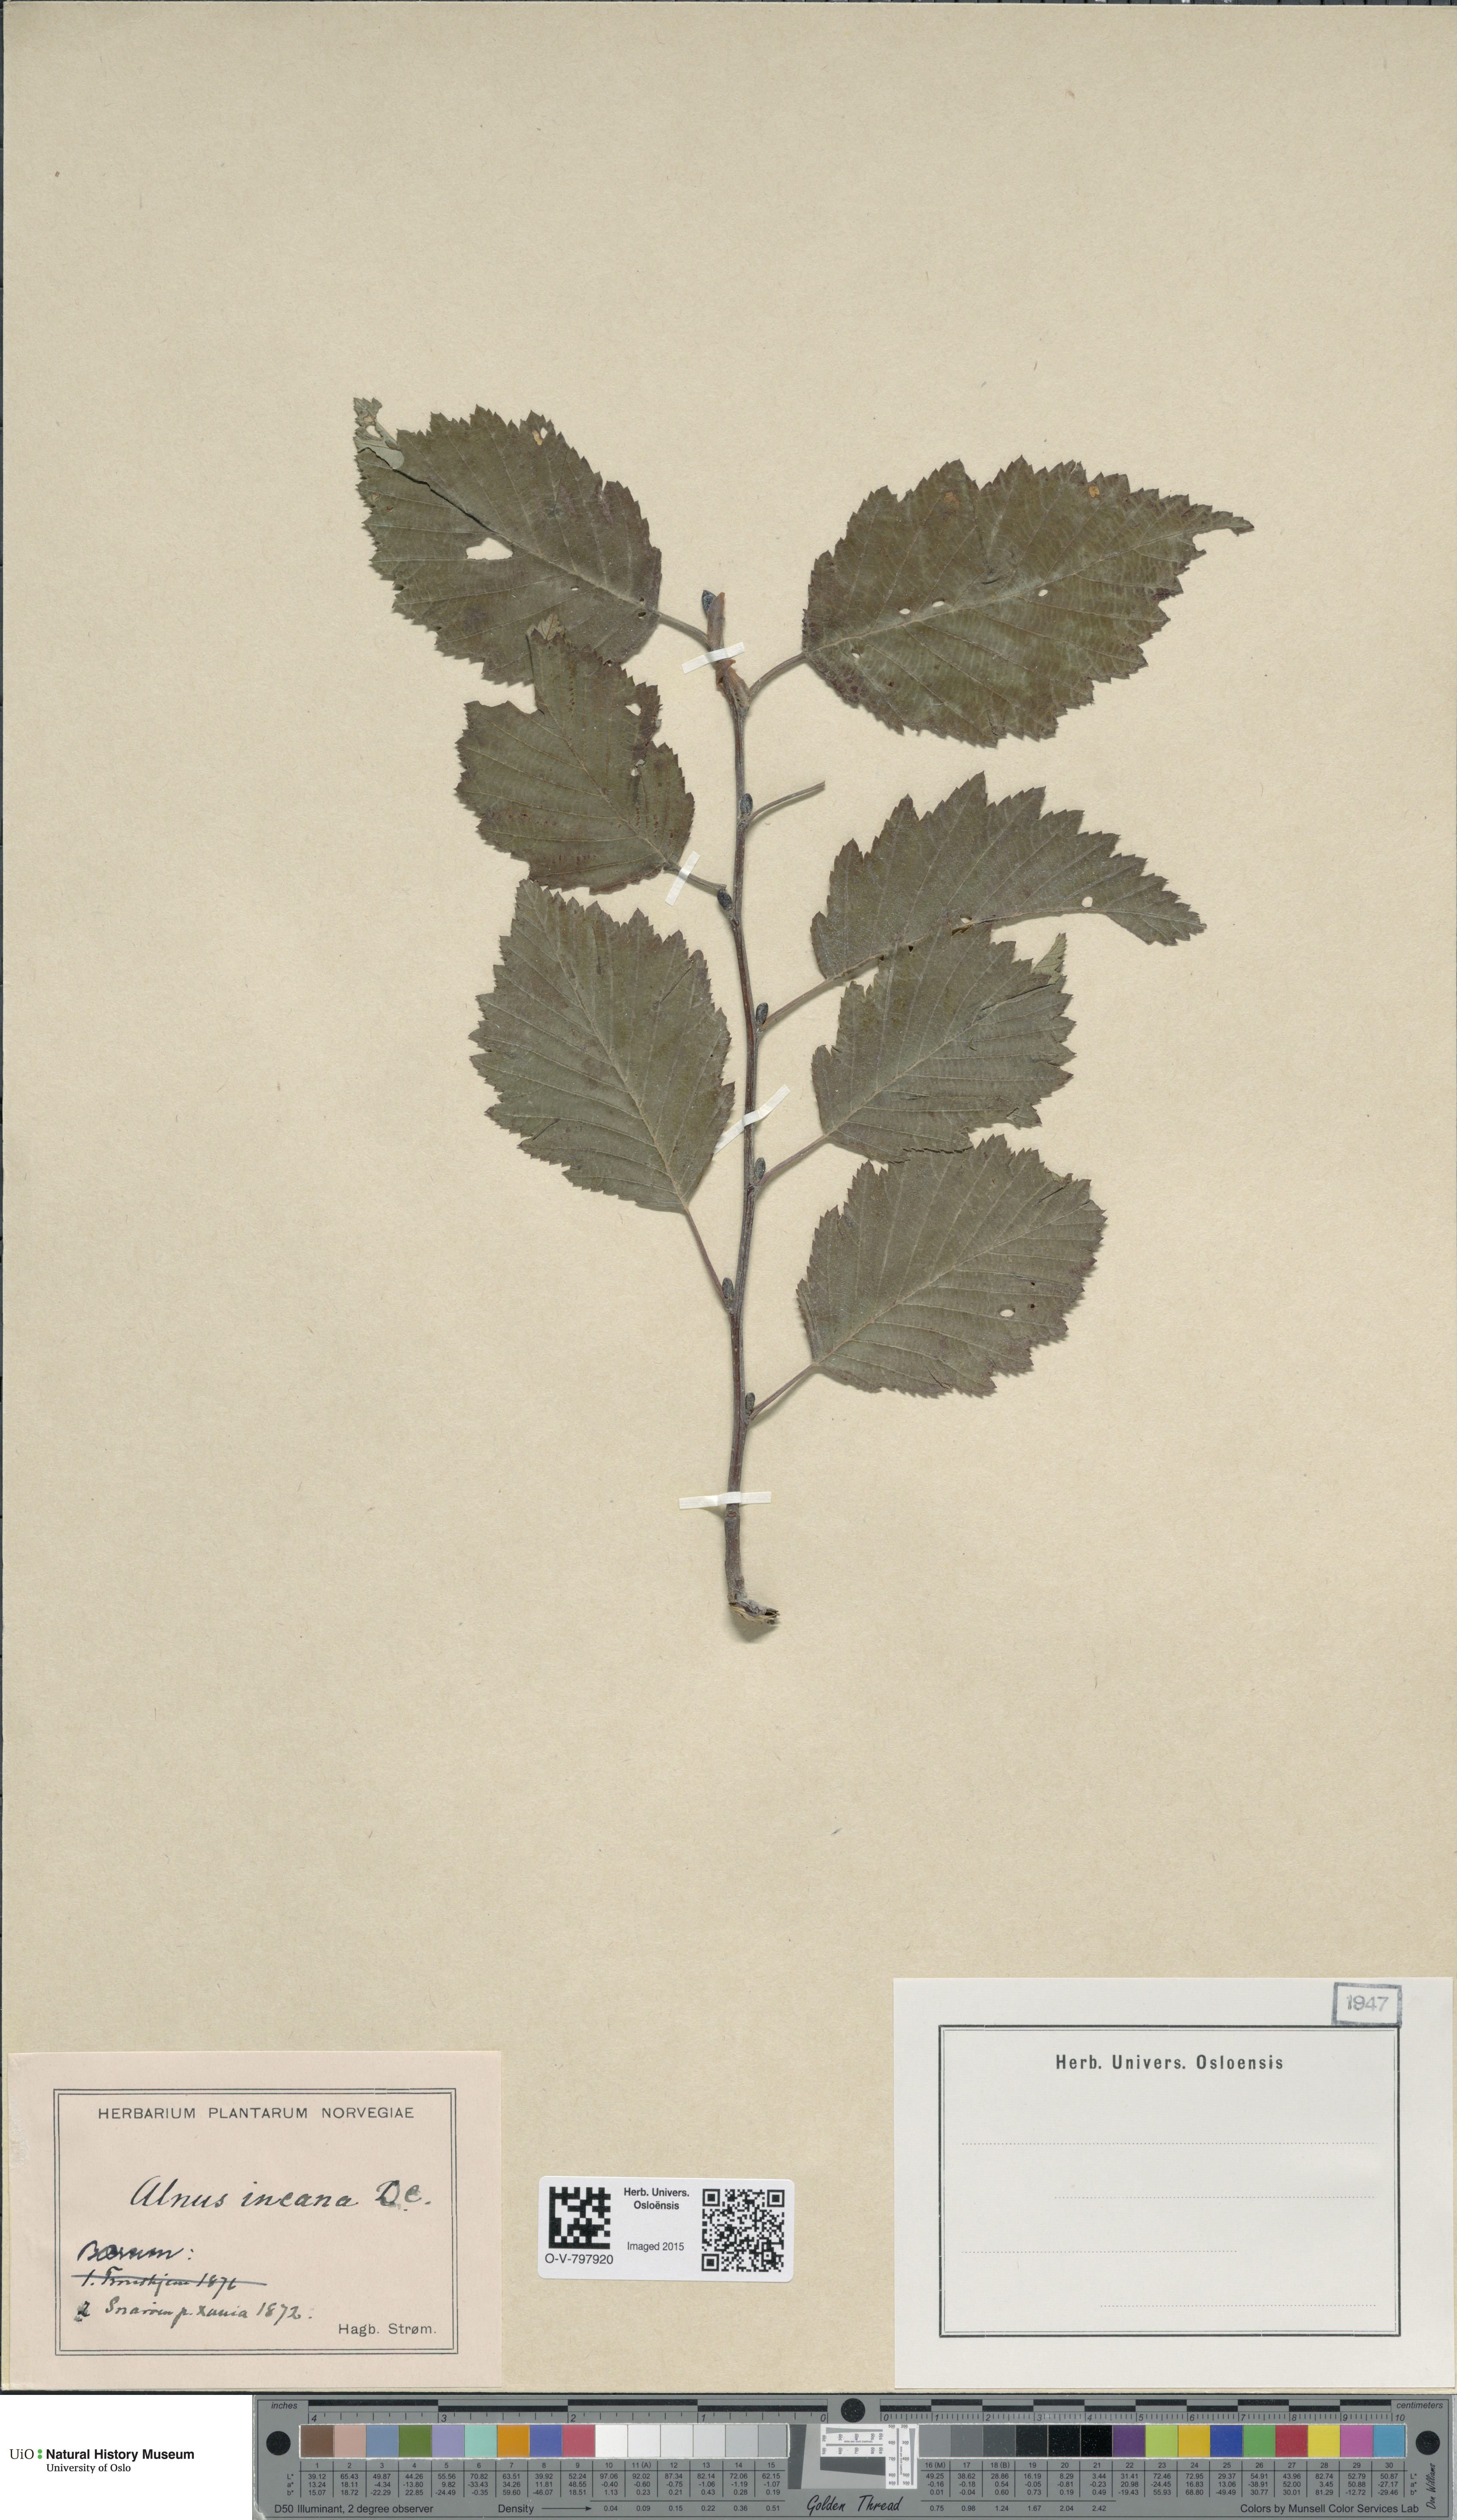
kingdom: Plantae
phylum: Tracheophyta
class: Magnoliopsida
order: Fagales
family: Betulaceae
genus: Alnus
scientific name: Alnus incana
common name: Grey alder
